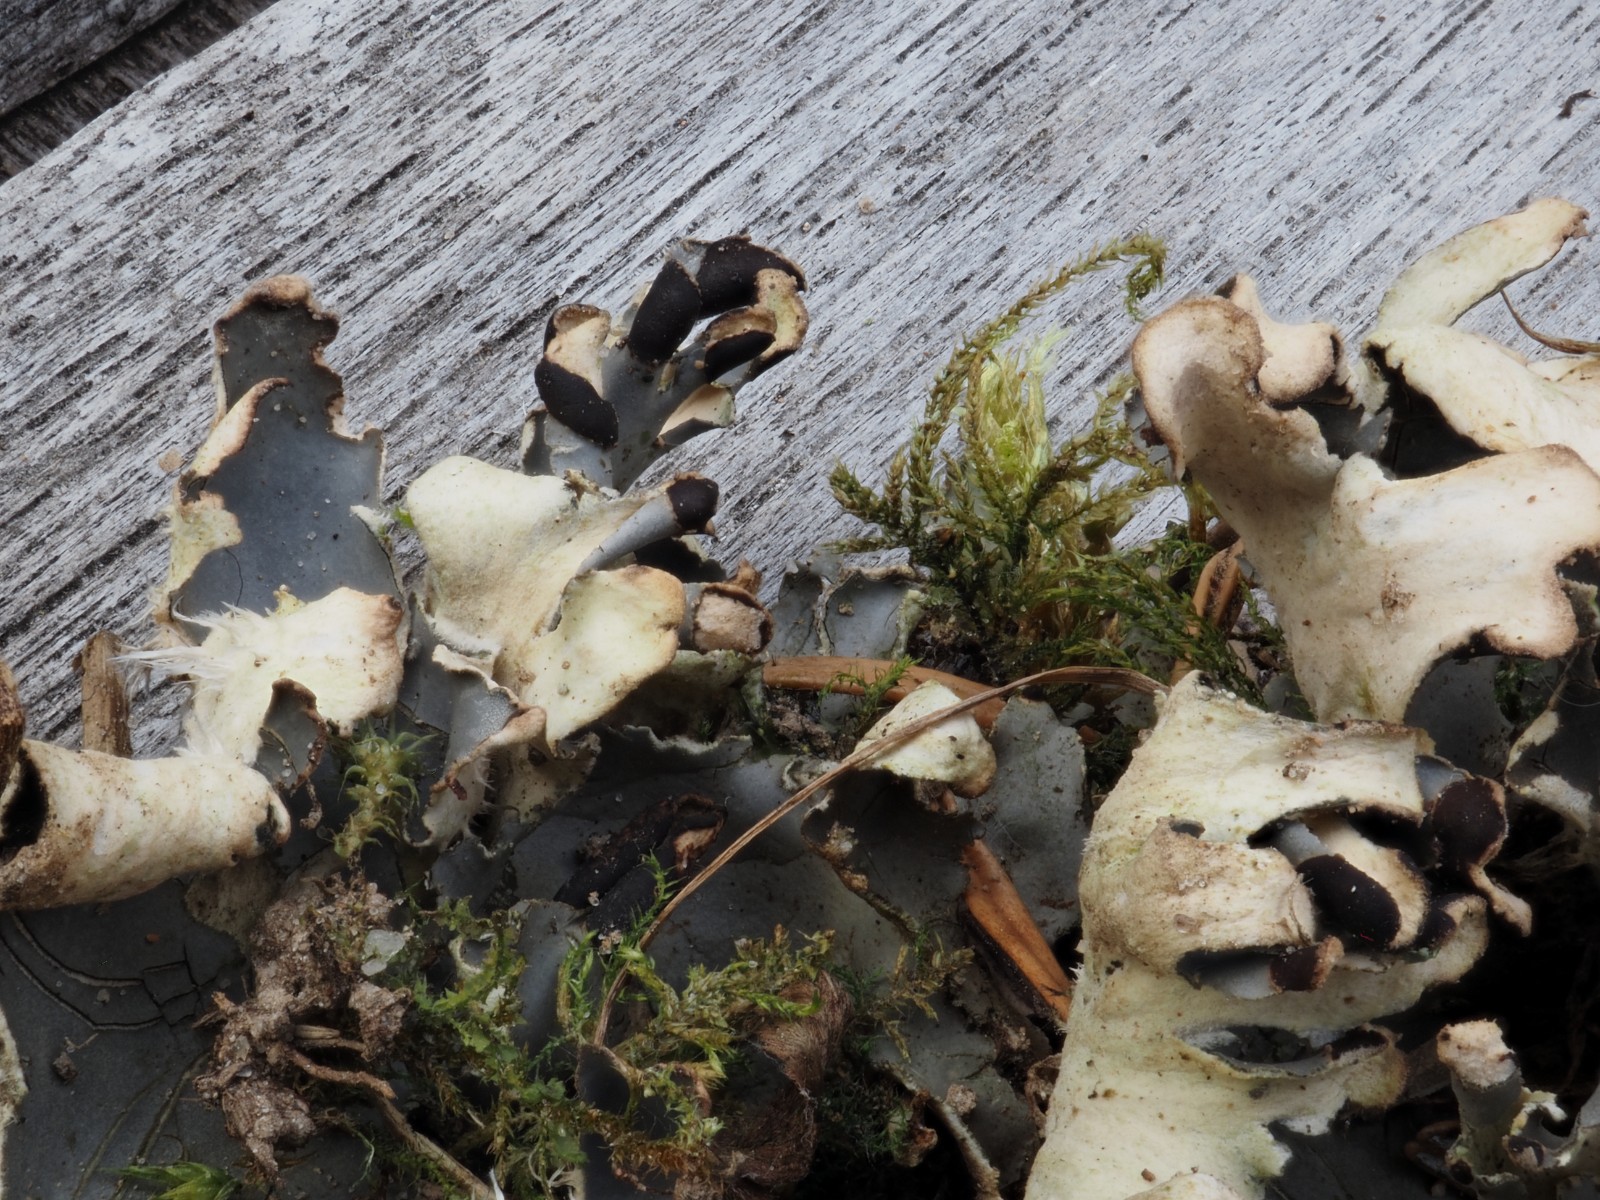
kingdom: Fungi
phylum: Ascomycota
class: Lecanoromycetes
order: Peltigerales
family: Peltigeraceae
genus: Peltigera
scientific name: Peltigera neckeri
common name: glinsende skjoldlav
